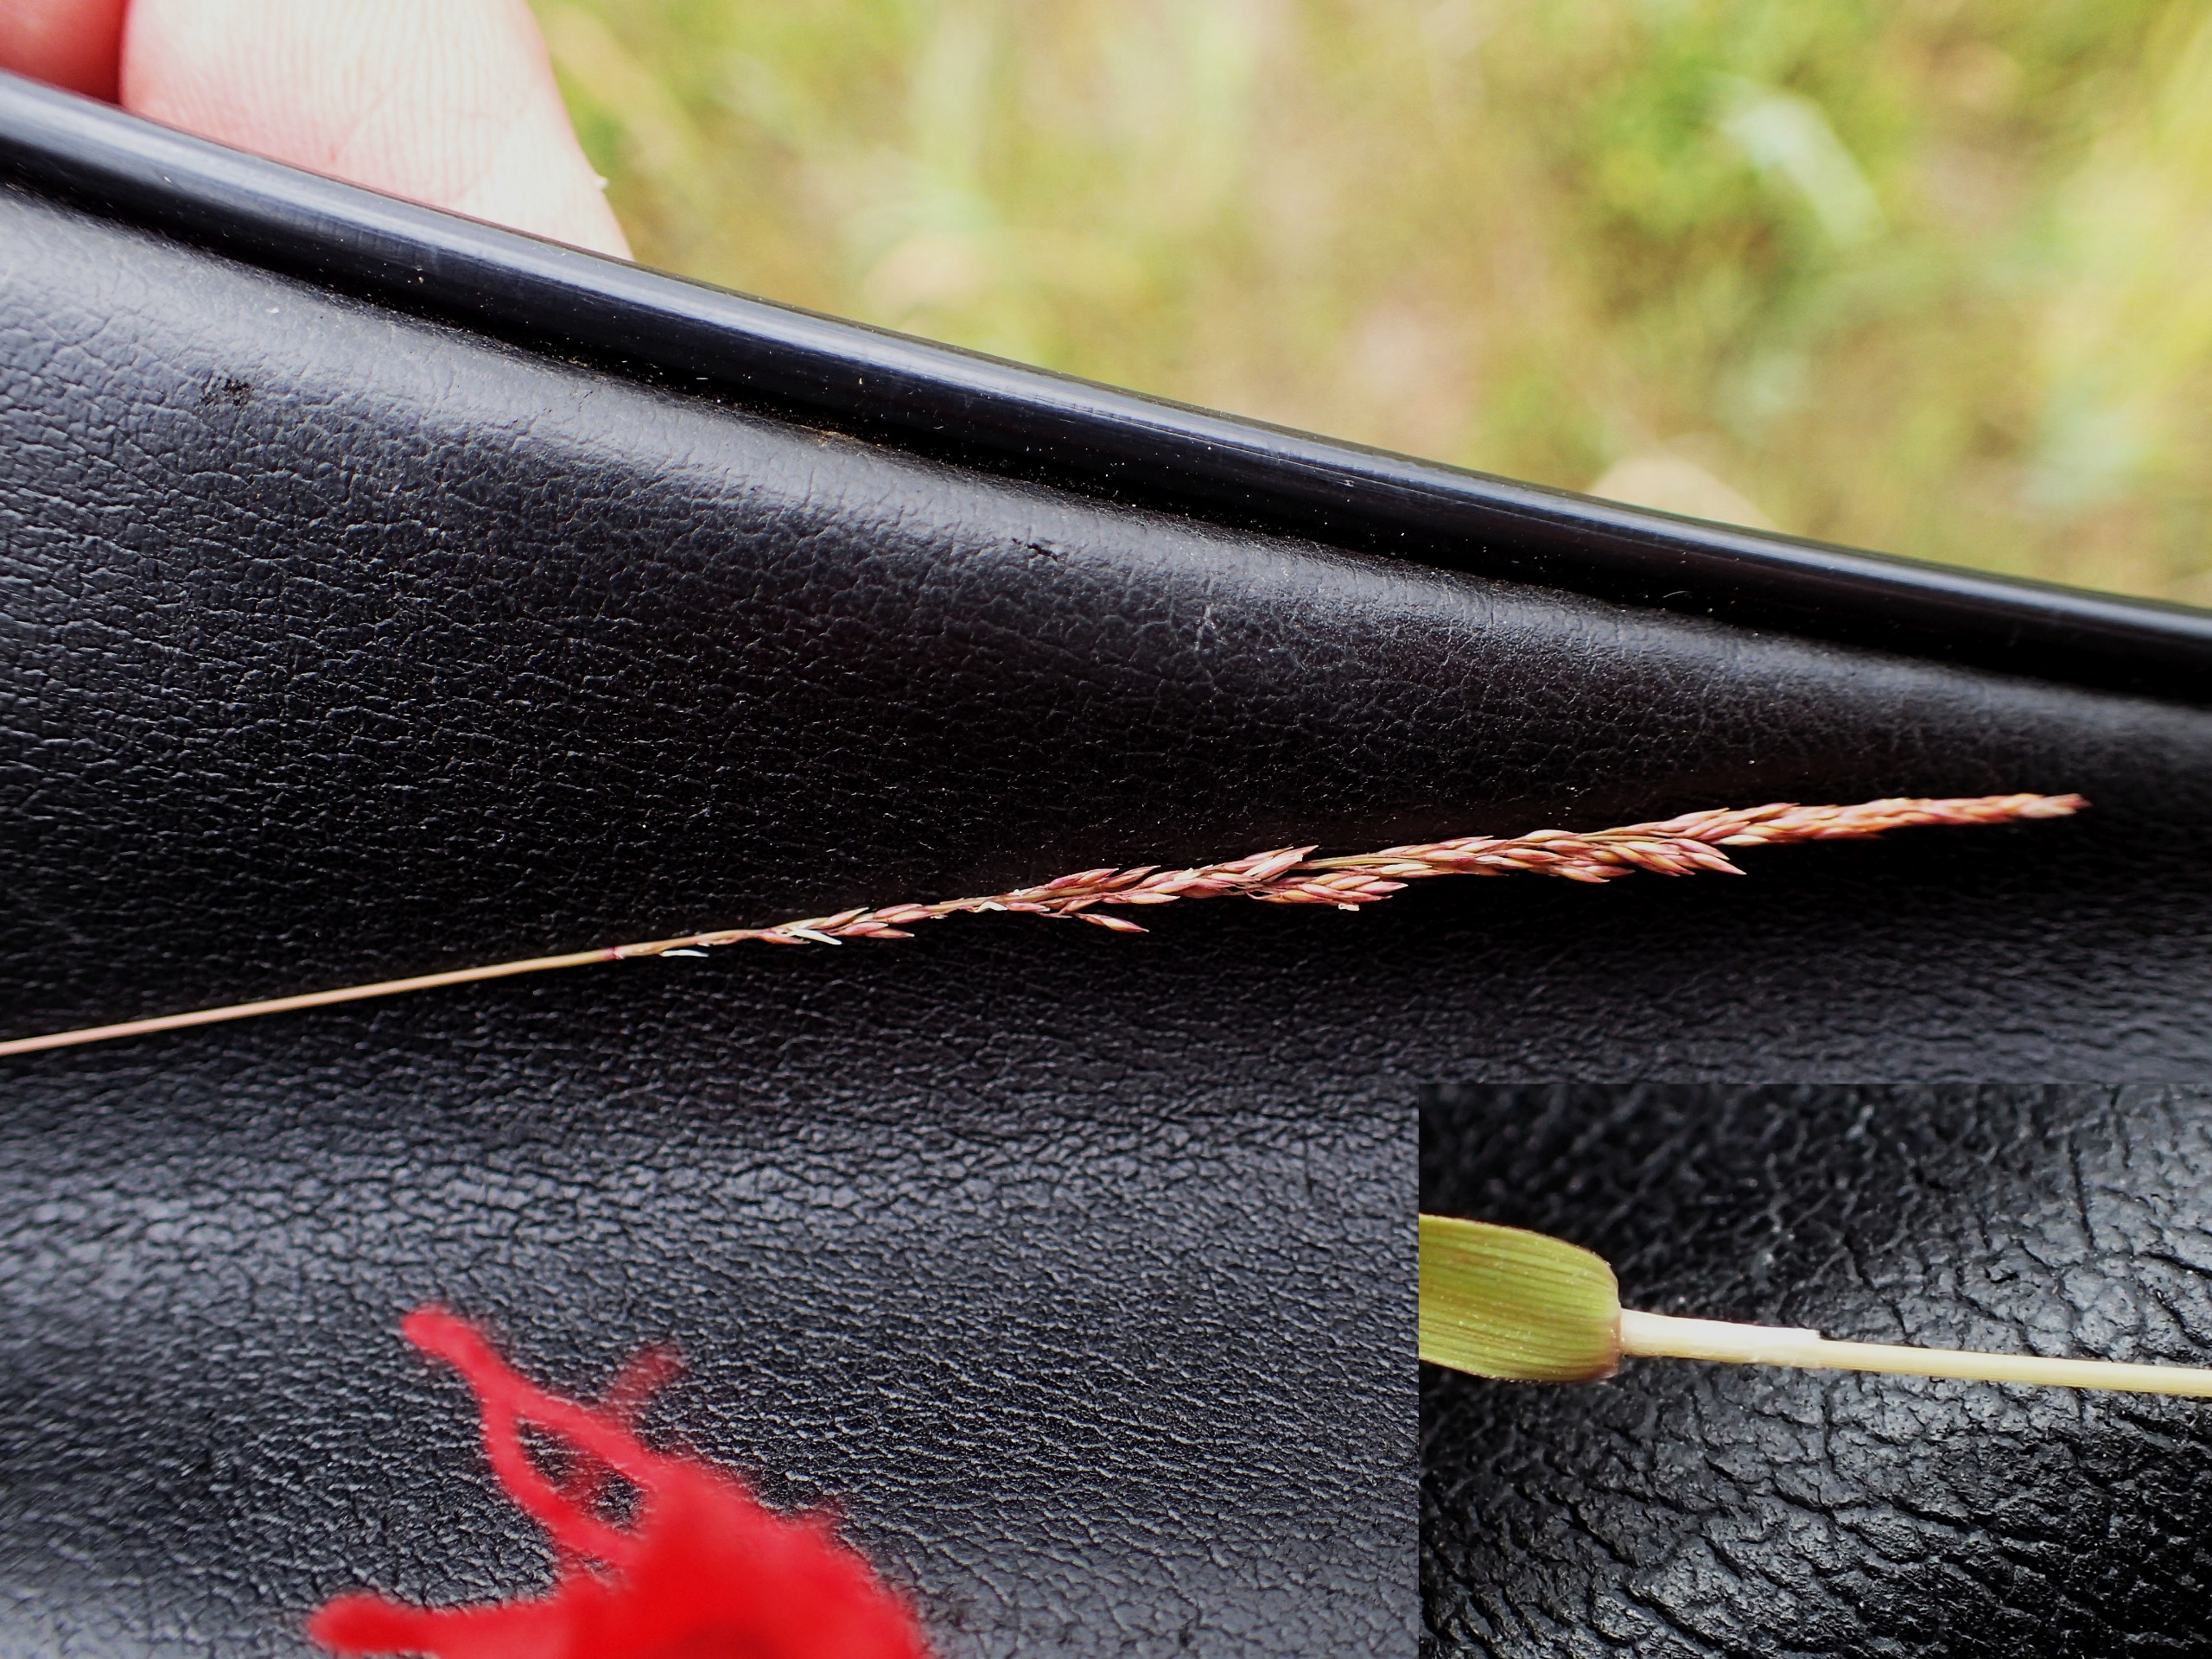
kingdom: Plantae
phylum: Tracheophyta
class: Liliopsida
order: Poales
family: Poaceae
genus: Agrostis
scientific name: Agrostis stolonifera
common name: Kryb-hvene
